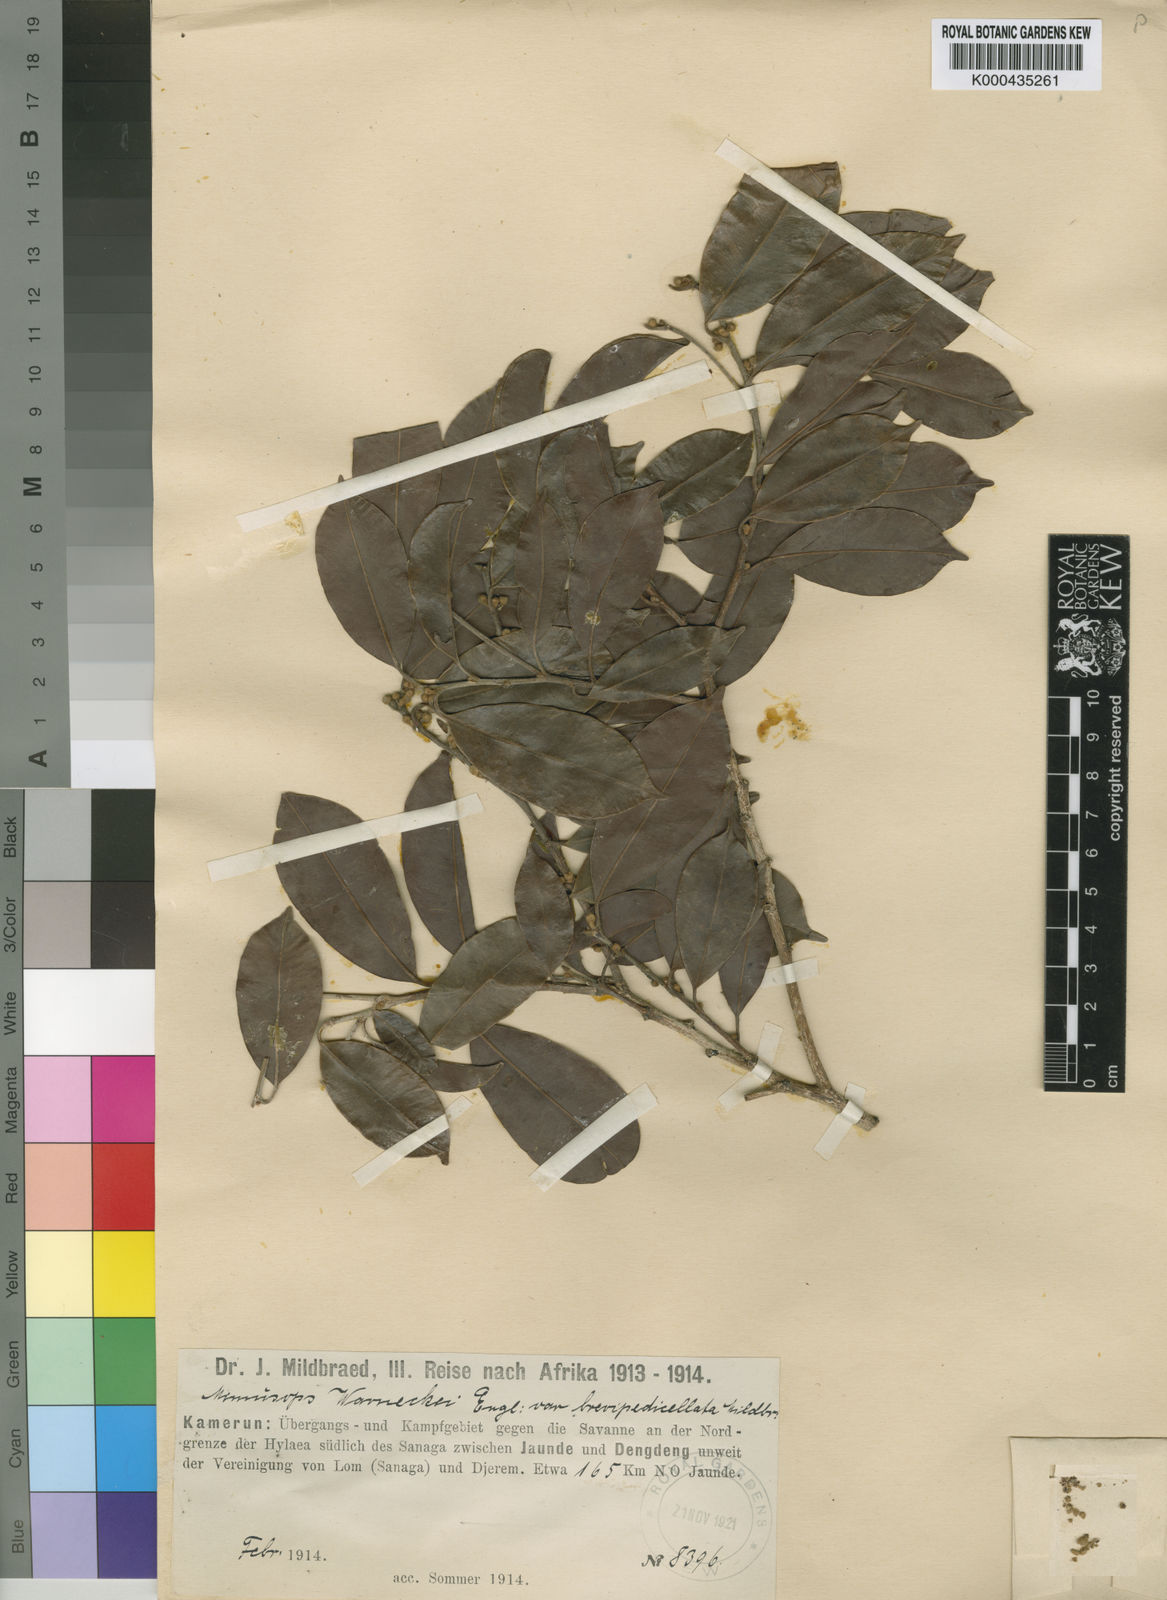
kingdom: Plantae
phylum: Tracheophyta
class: Magnoliopsida
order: Ericales
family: Sapotaceae
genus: Mimusops
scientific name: Mimusops andongensis
